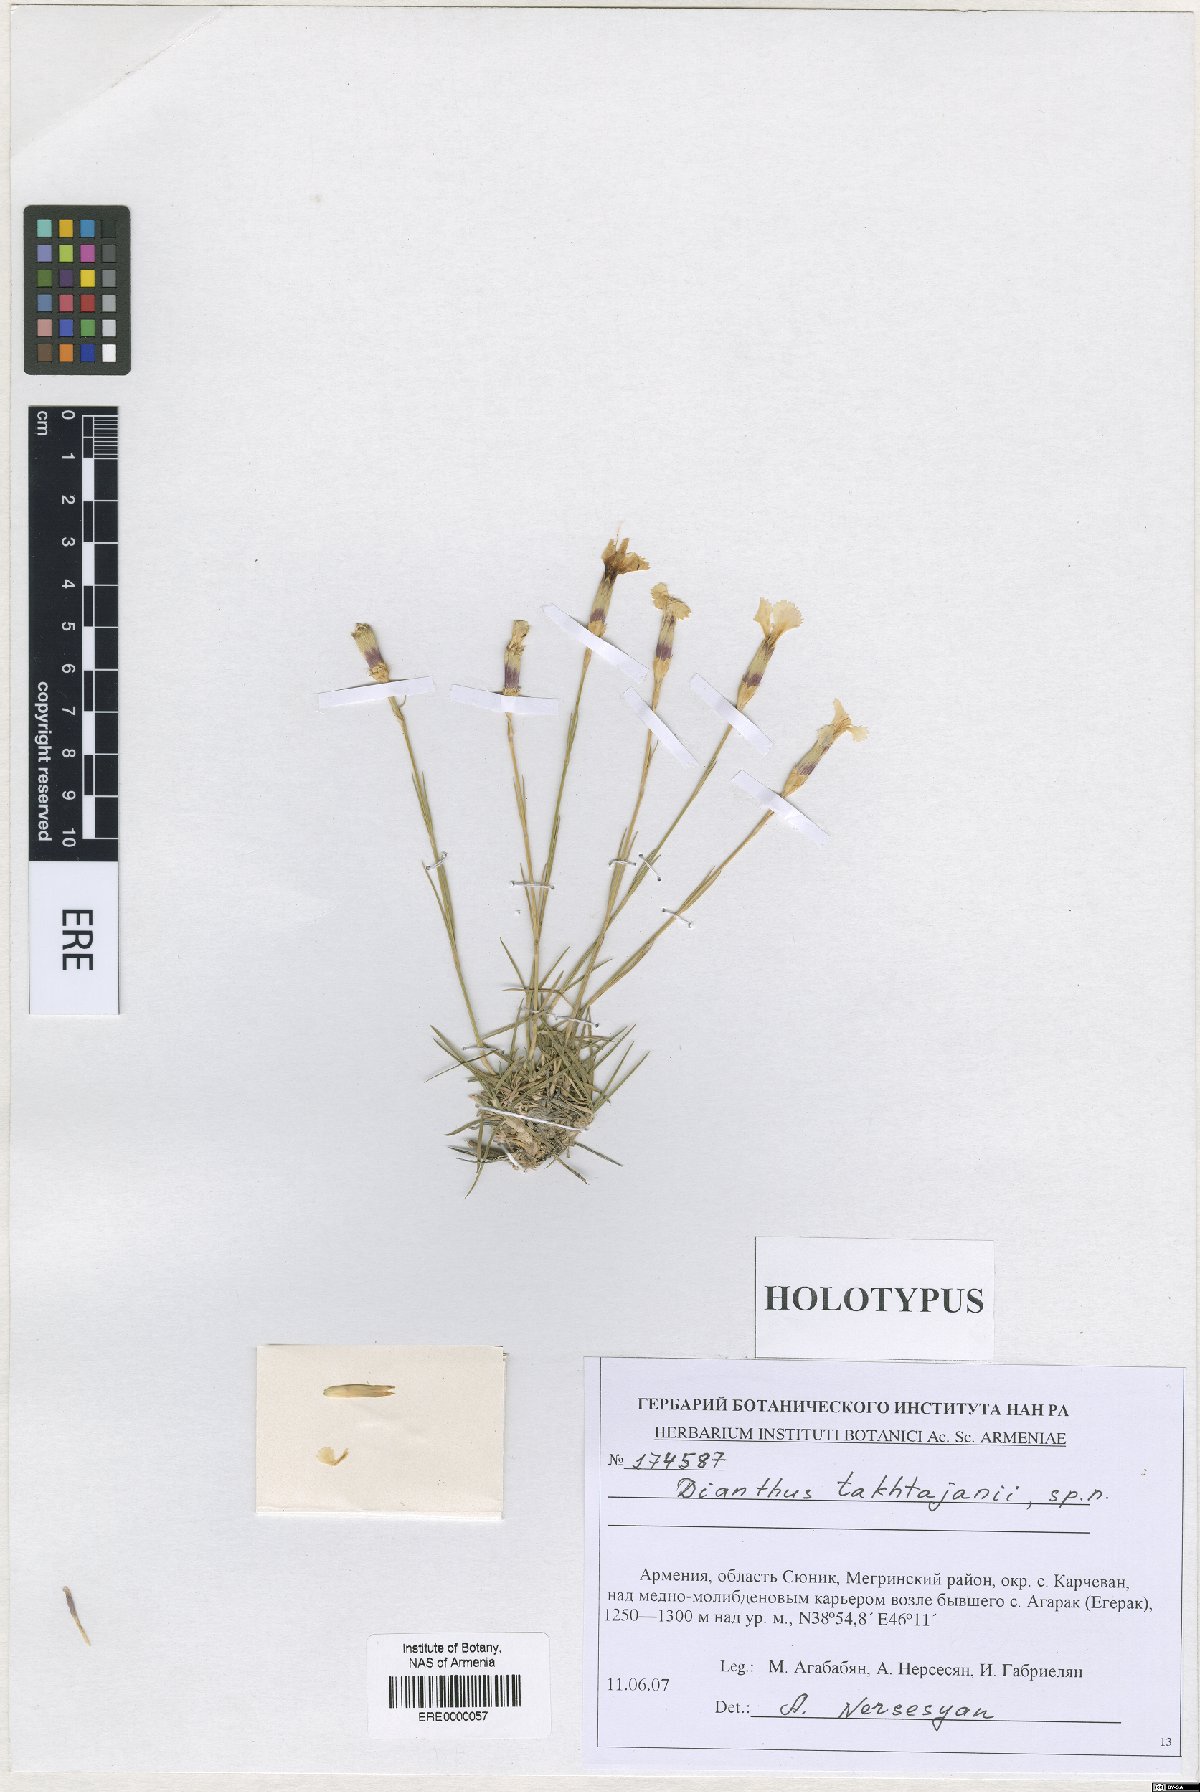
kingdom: Plantae
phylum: Tracheophyta
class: Magnoliopsida
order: Caryophyllales
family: Caryophyllaceae
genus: Dianthus
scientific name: Dianthus takhtajanii
